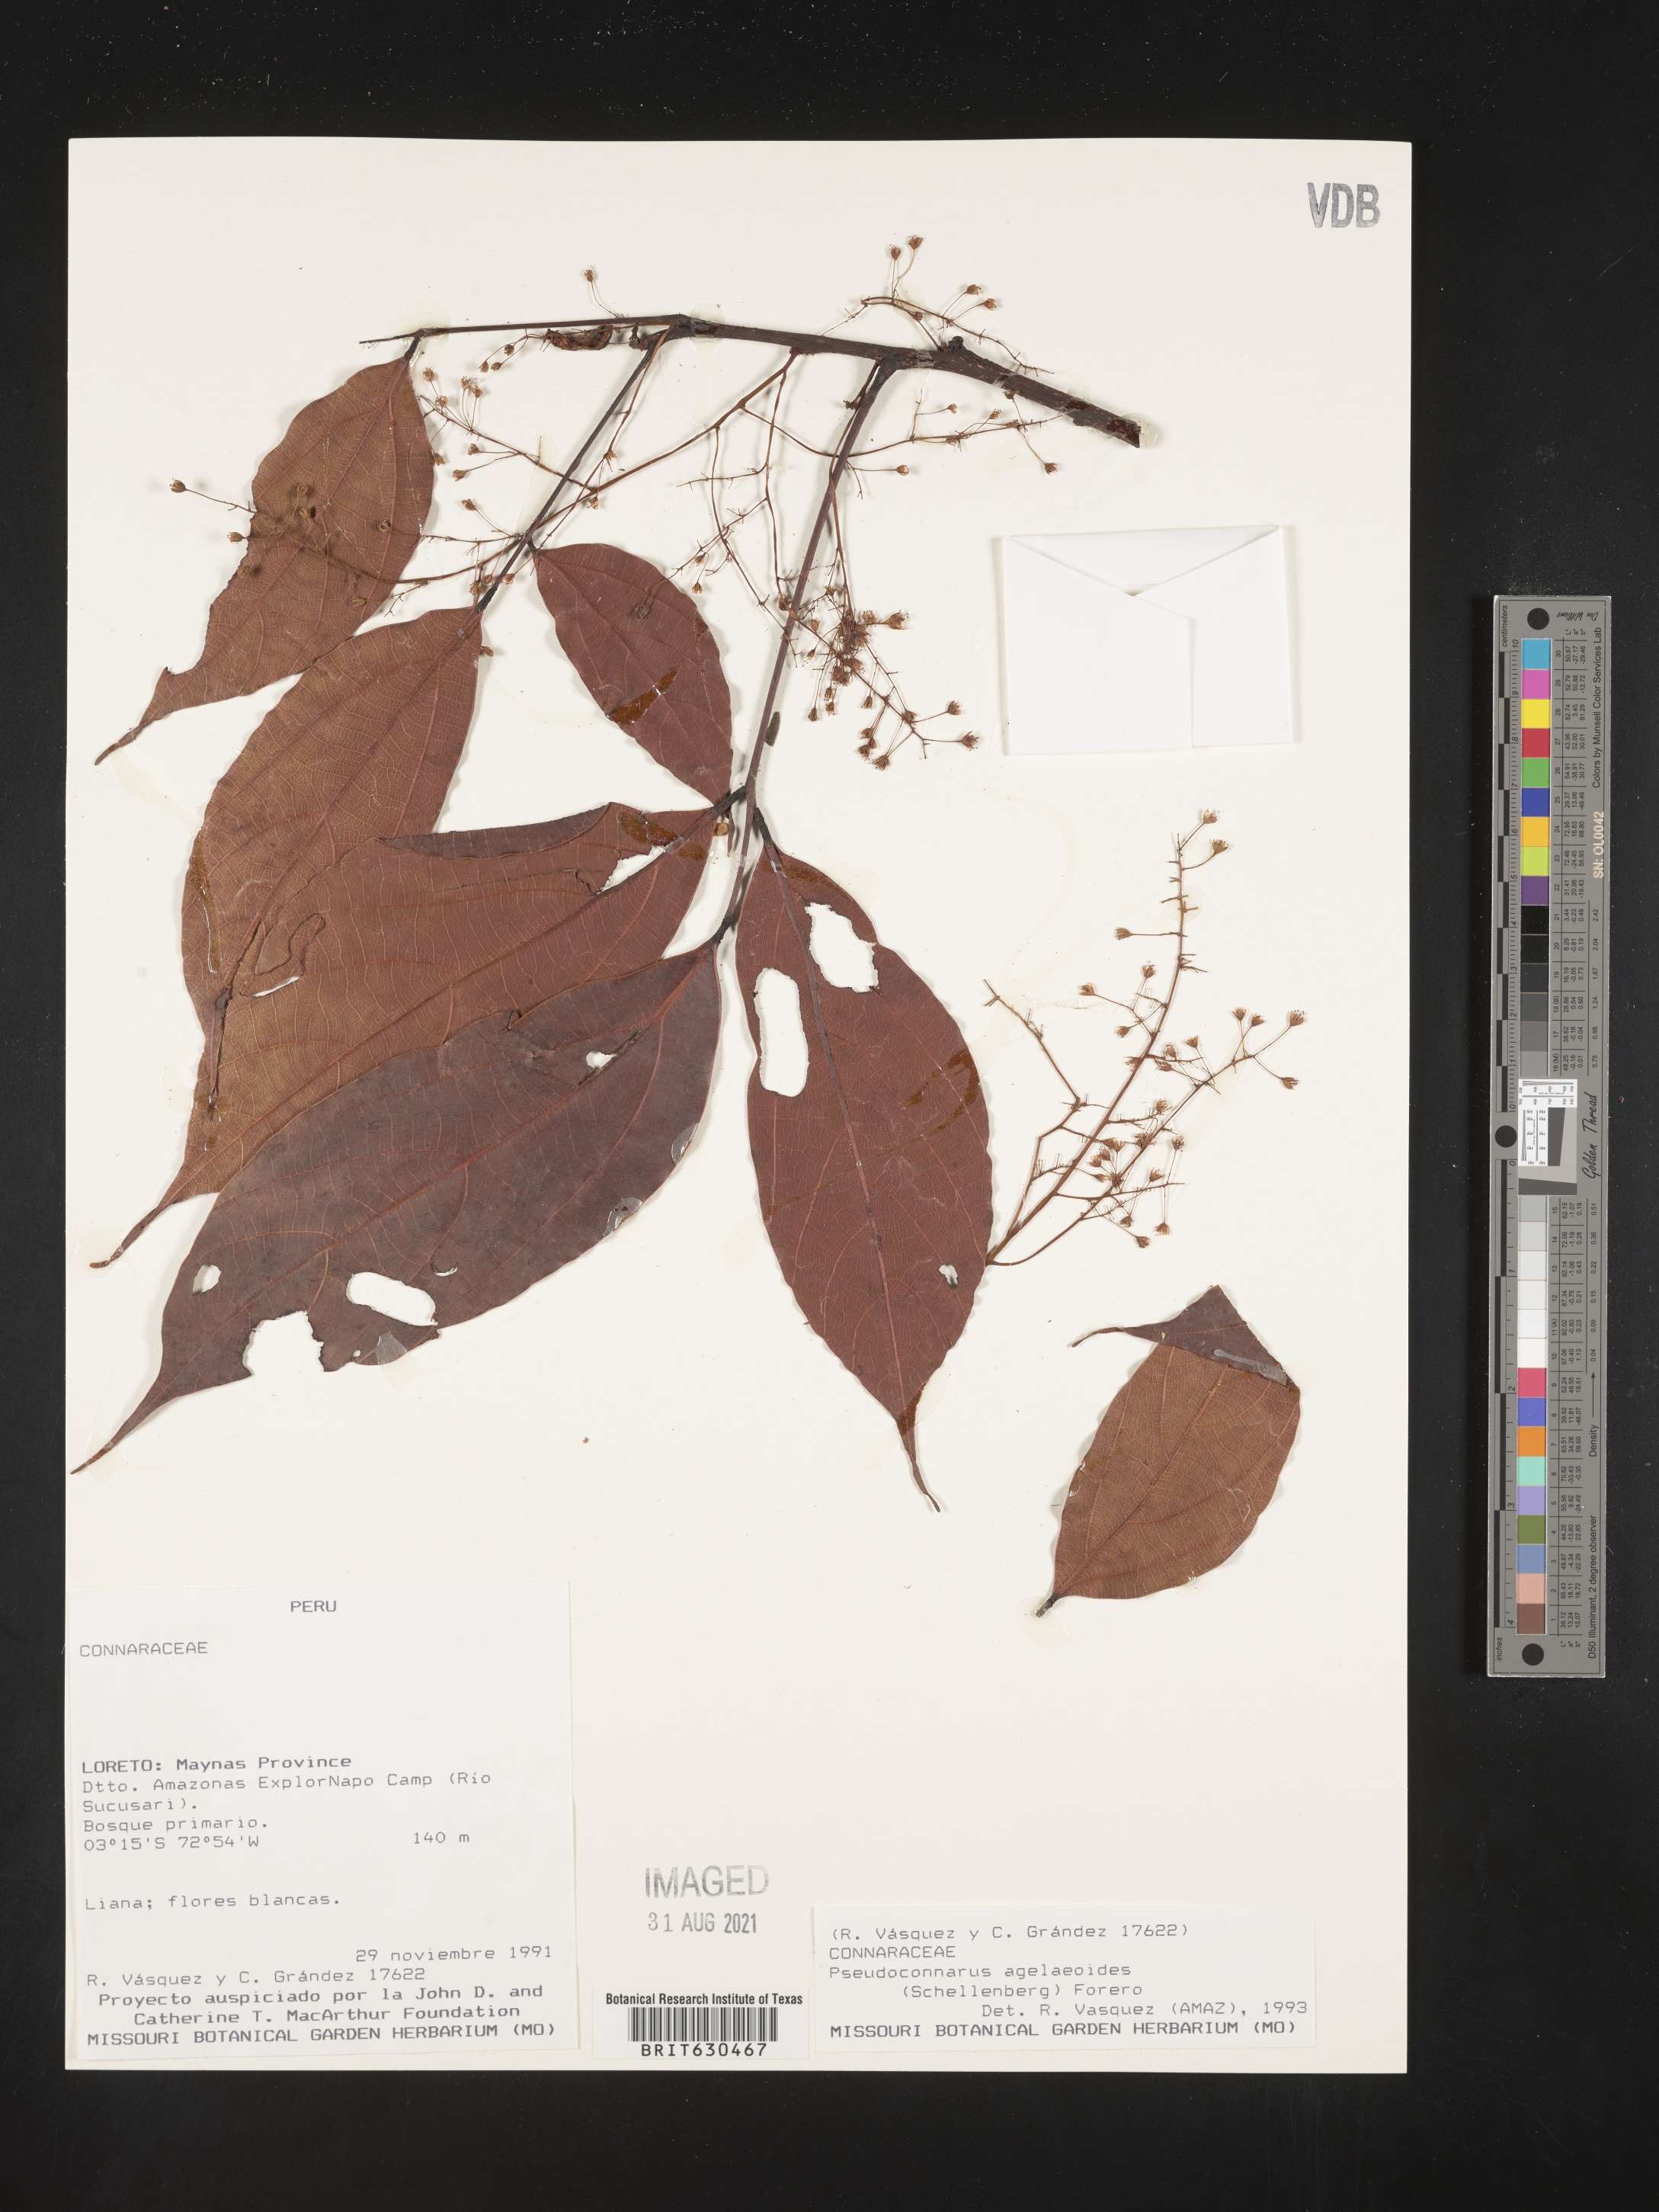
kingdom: Plantae
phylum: Tracheophyta
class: Magnoliopsida
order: Oxalidales
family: Connaraceae
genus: Pseudoconnarus
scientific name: Pseudoconnarus agelaefolius
